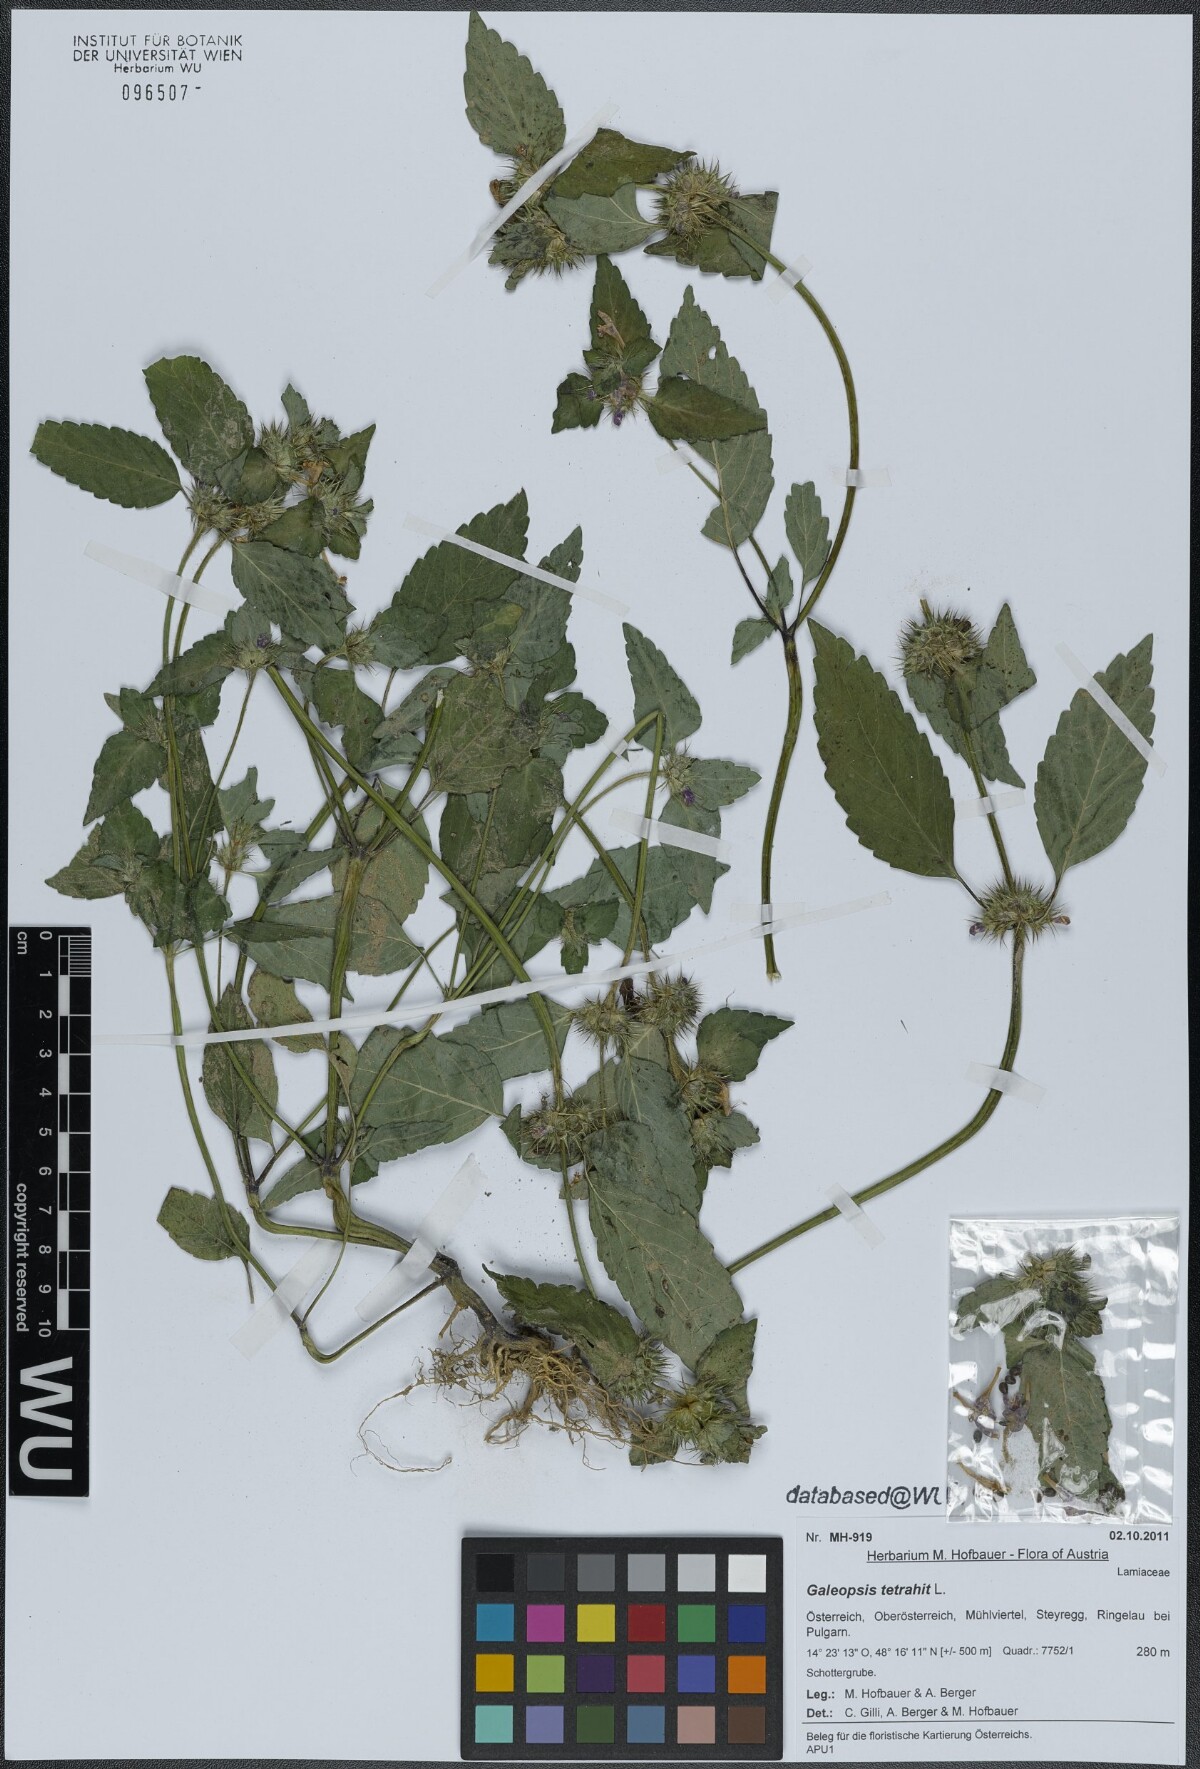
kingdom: Plantae
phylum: Tracheophyta
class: Magnoliopsida
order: Lamiales
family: Lamiaceae
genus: Galeopsis
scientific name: Galeopsis tetrahit
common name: Common hemp-nettle
